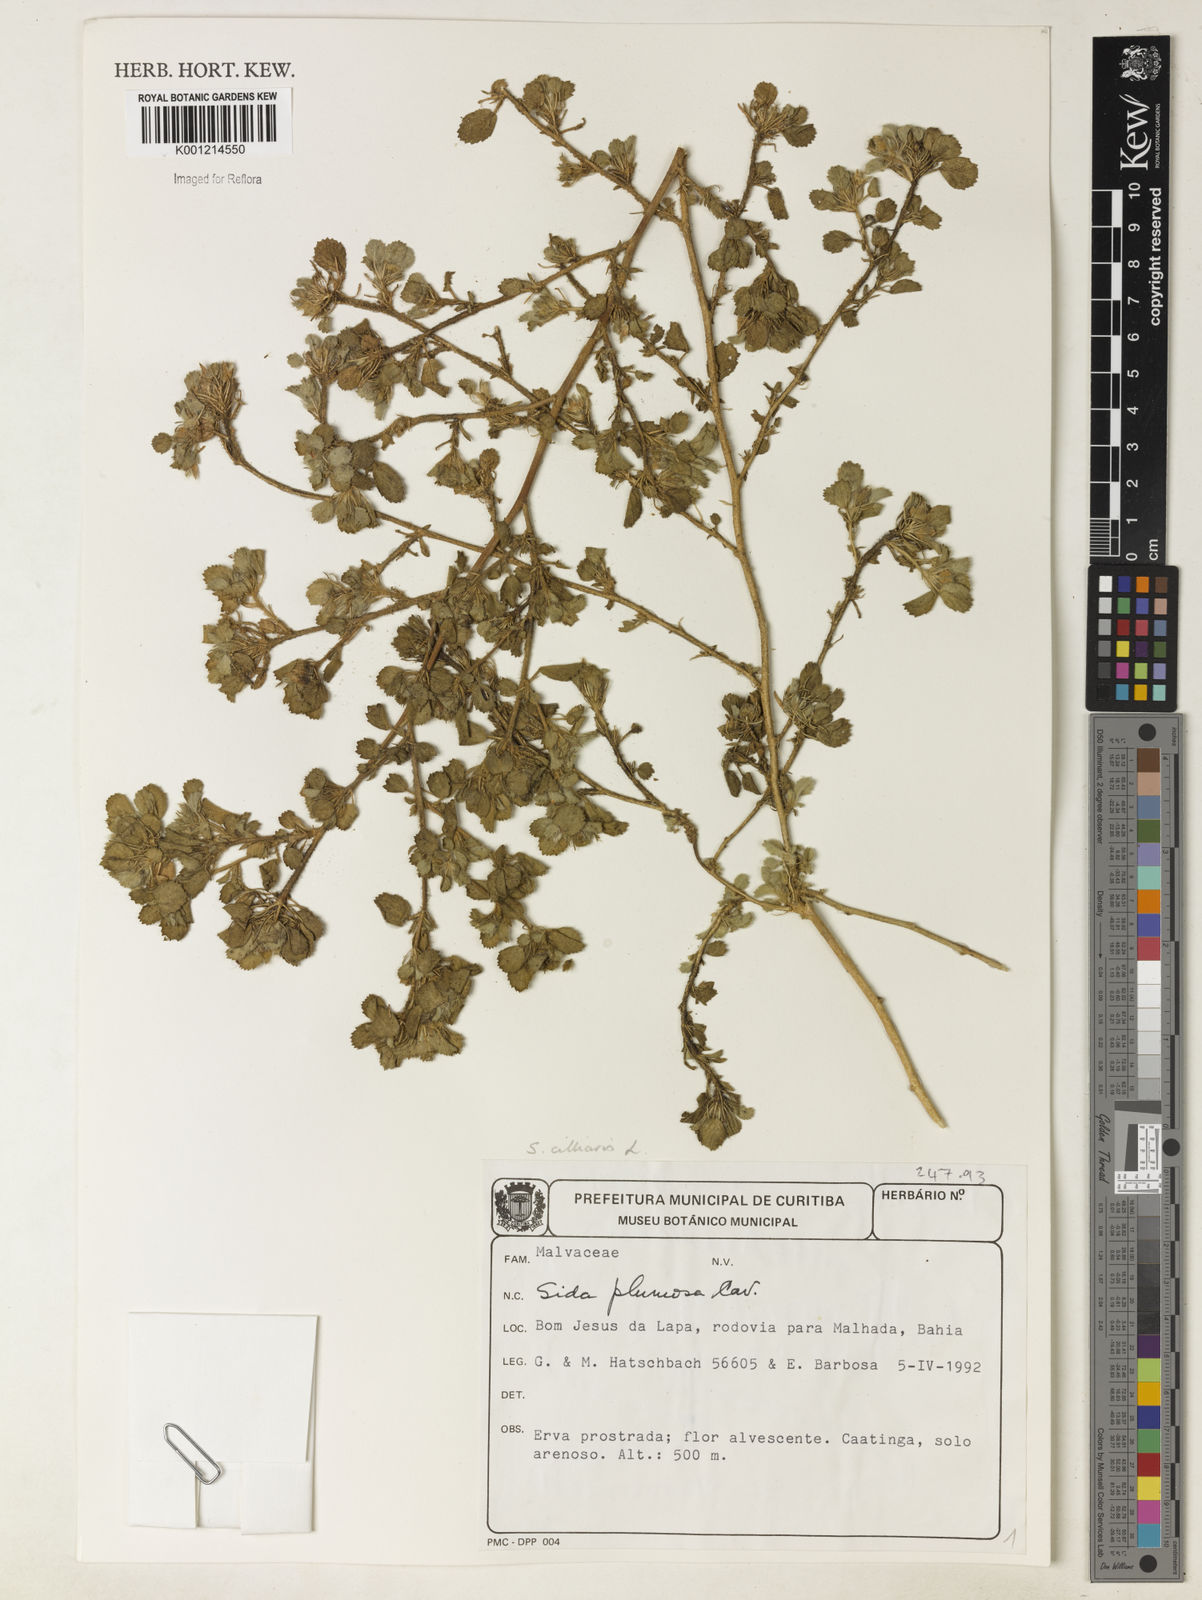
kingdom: Plantae
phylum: Tracheophyta
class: Magnoliopsida
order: Malvales
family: Malvaceae
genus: Sida
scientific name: Sida ciliaris
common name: Bracted fanpetals
